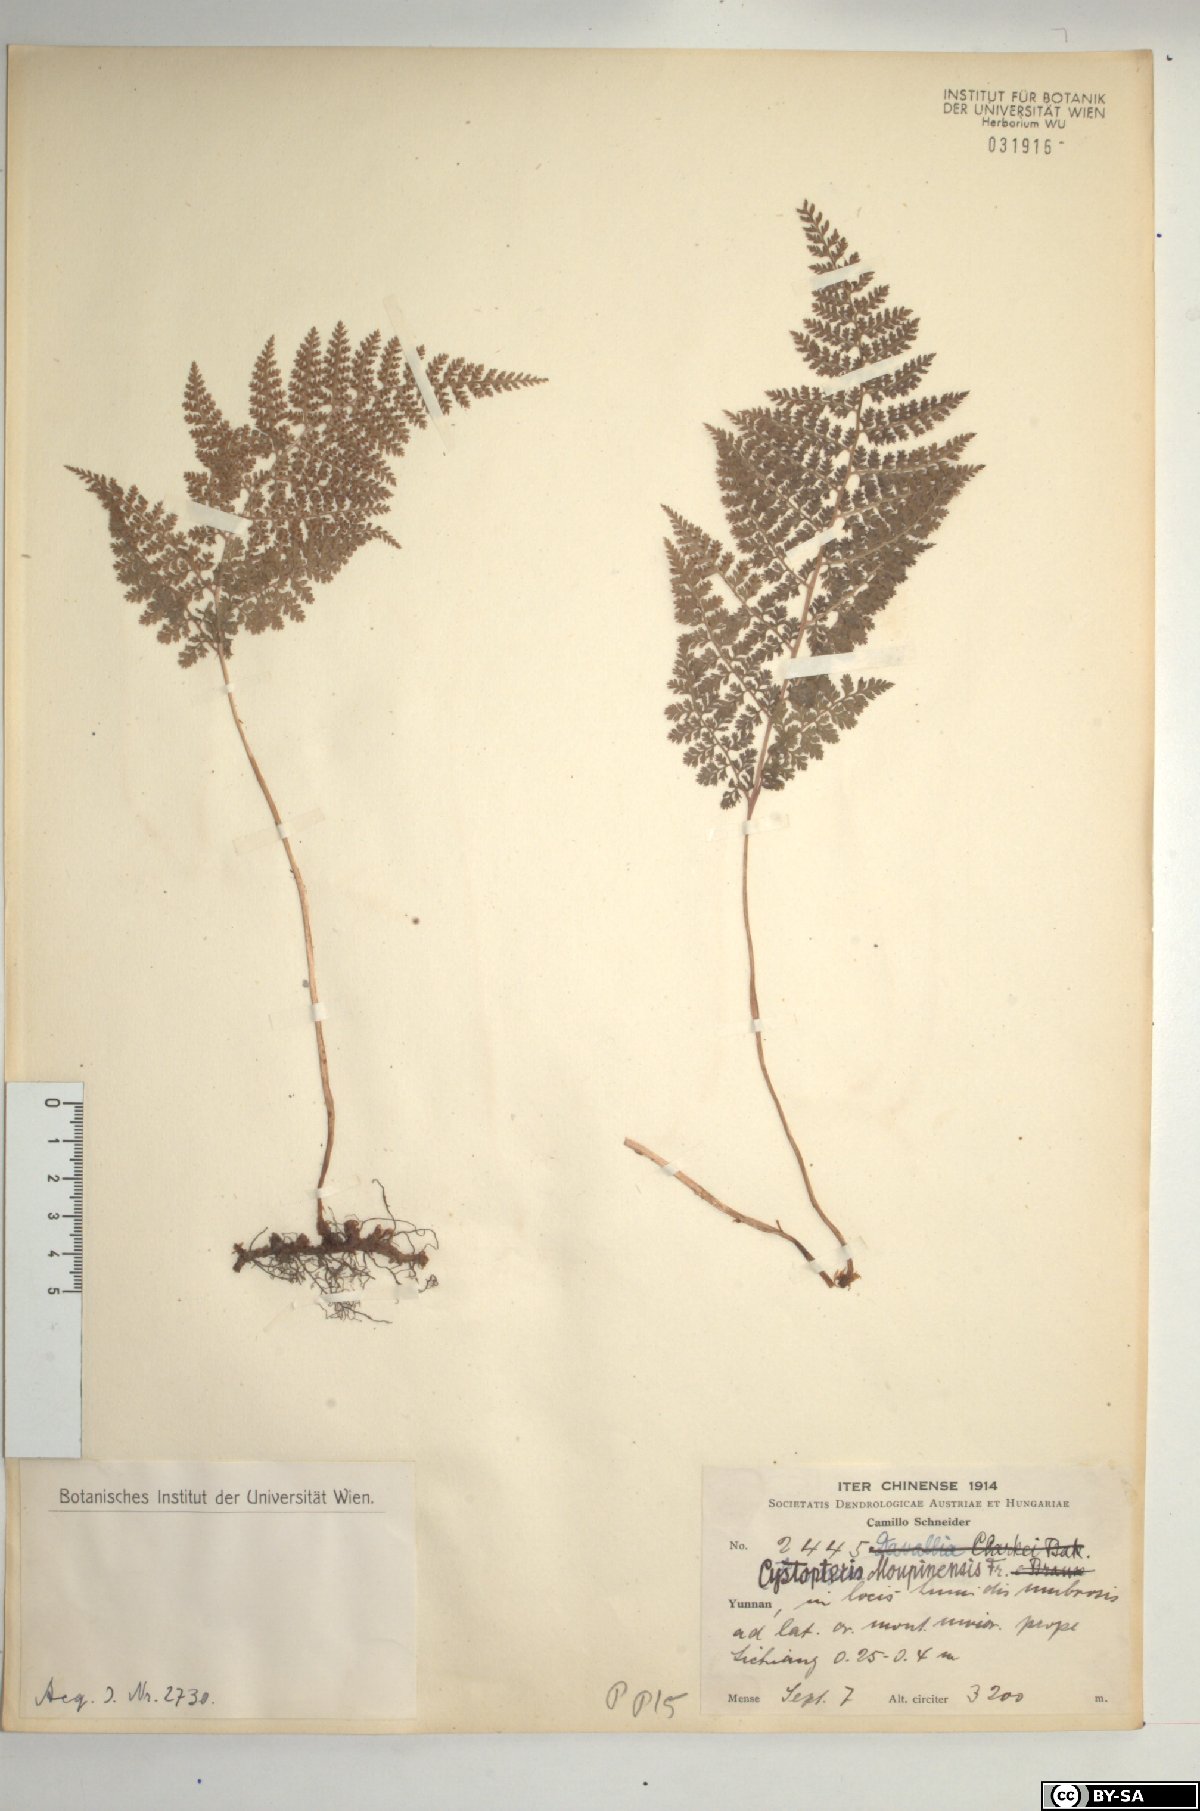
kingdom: Plantae
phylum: Tracheophyta
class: Polypodiopsida
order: Polypodiales
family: Cystopteridaceae
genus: Cystopteris
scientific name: Cystopteris moupinensis
